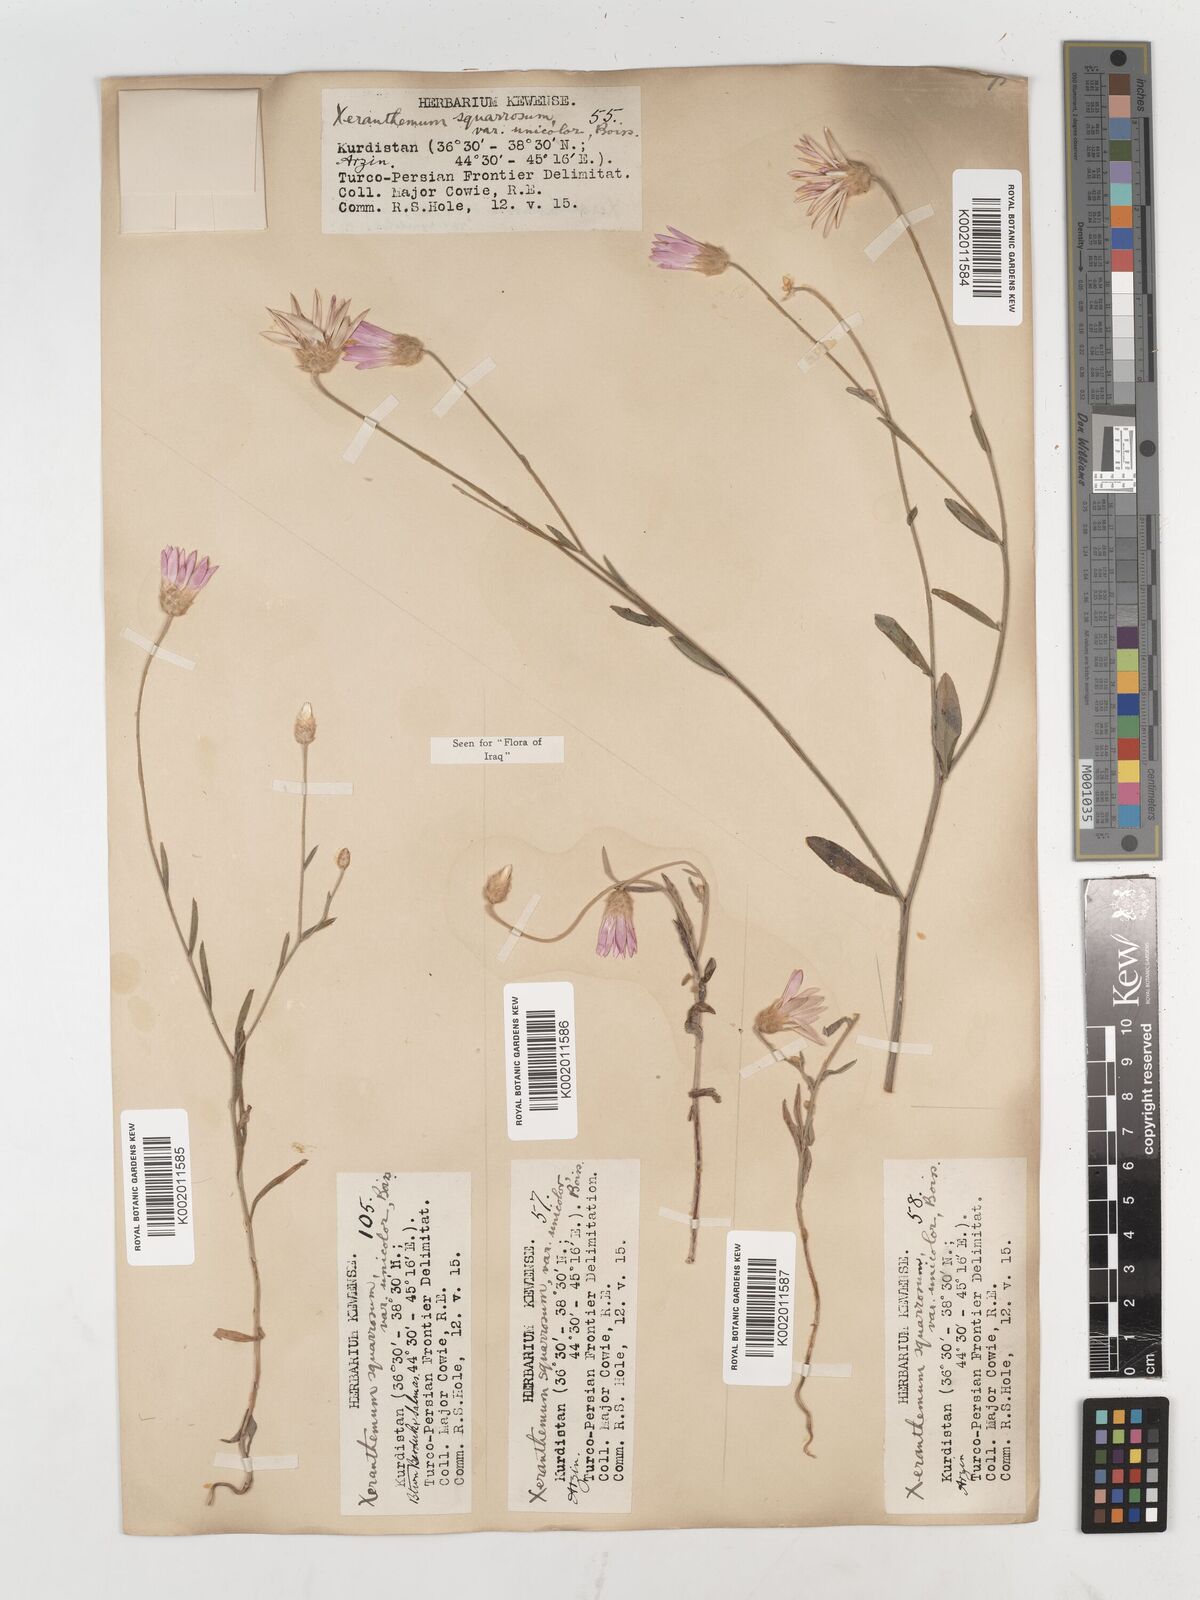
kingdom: Plantae
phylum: Tracheophyta
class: Magnoliopsida
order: Asterales
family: Asteraceae
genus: Xeranthemum
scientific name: Xeranthemum annuum
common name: Immortelle
